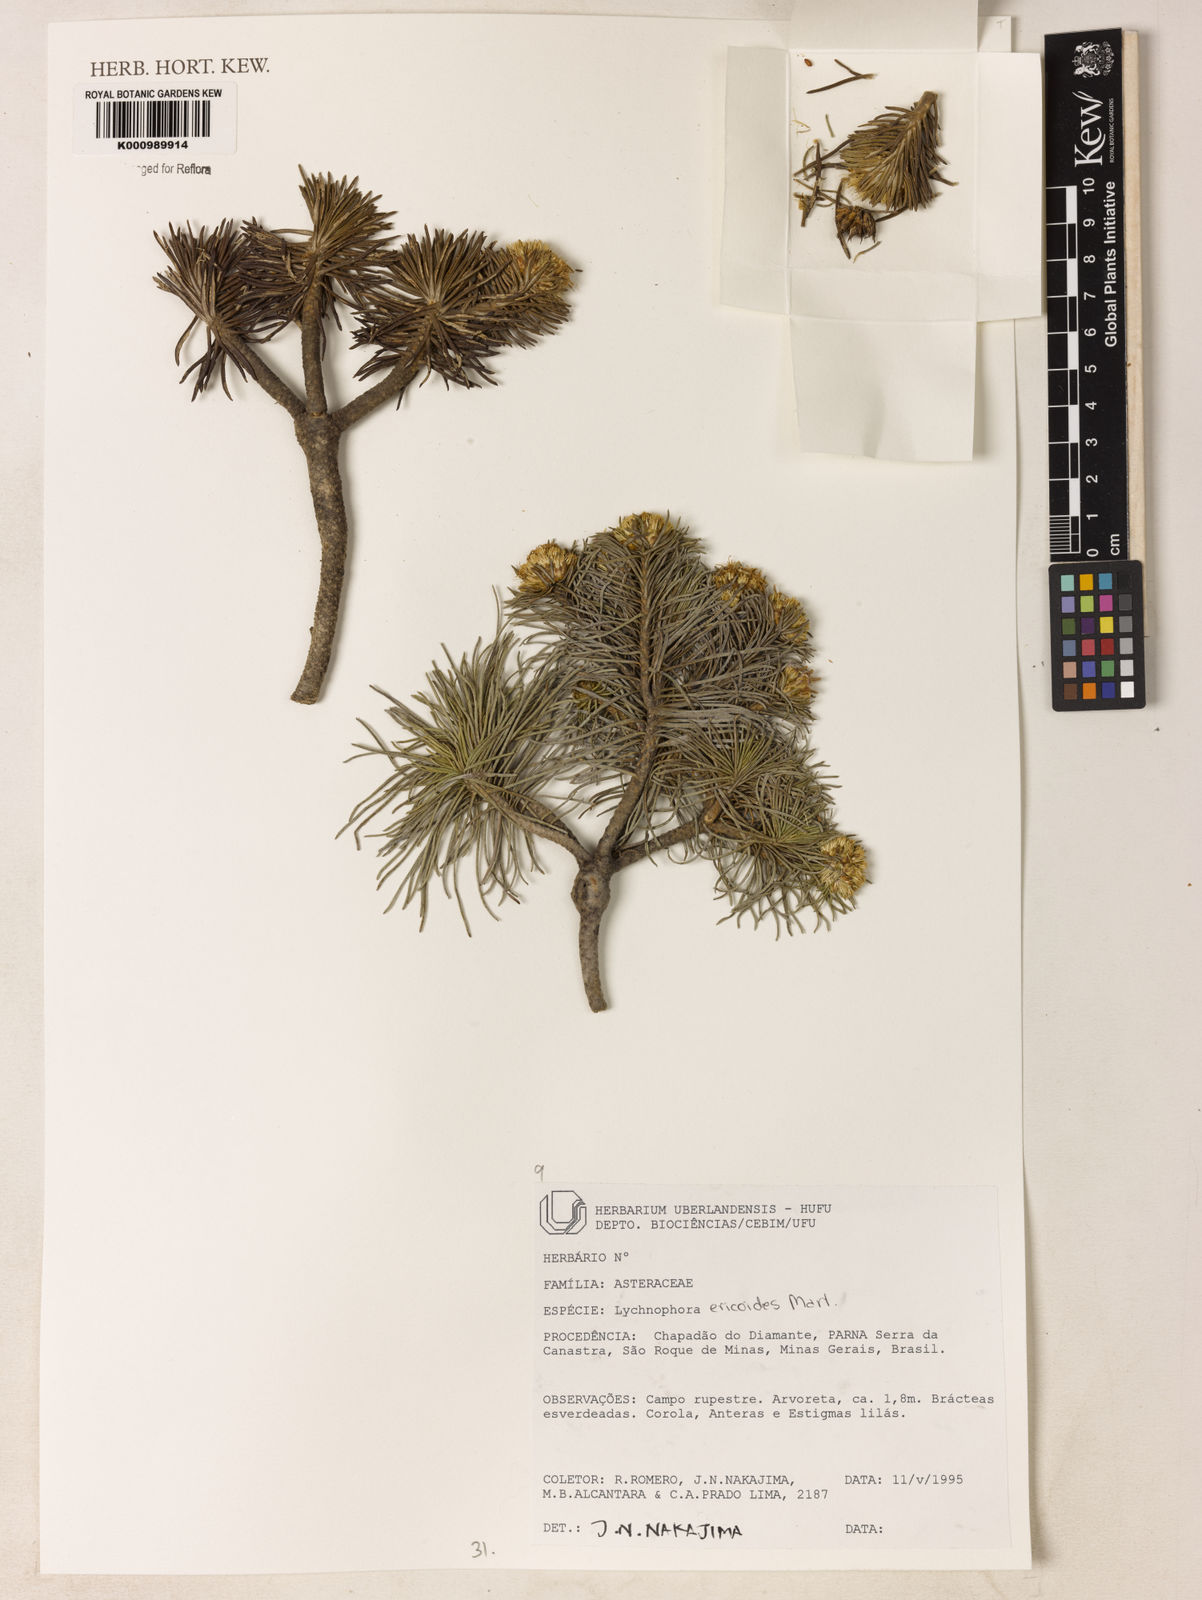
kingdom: Plantae
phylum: Tracheophyta
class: Magnoliopsida
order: Asterales
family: Asteraceae
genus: Lychnophora
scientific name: Lychnophora ericoides
